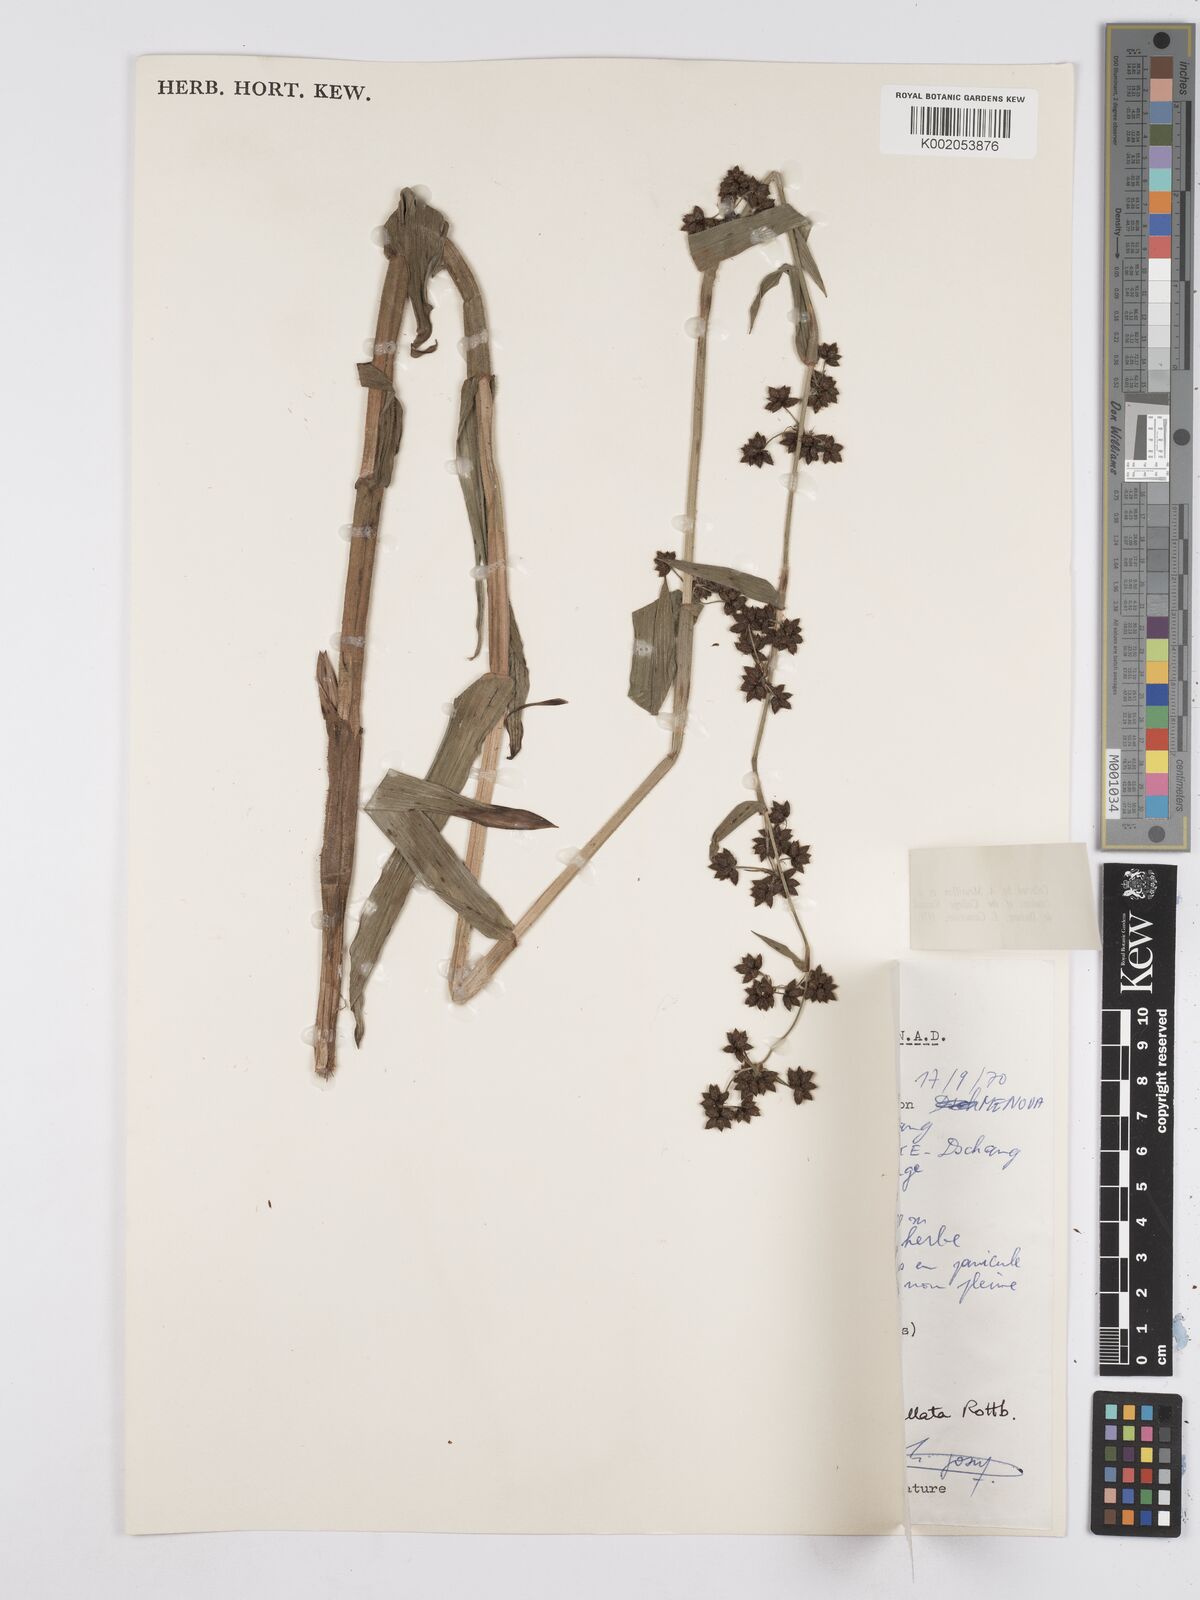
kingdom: Plantae
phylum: Tracheophyta
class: Liliopsida
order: Poales
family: Cyperaceae
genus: Fuirena
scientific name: Fuirena umbellata
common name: Yefen
